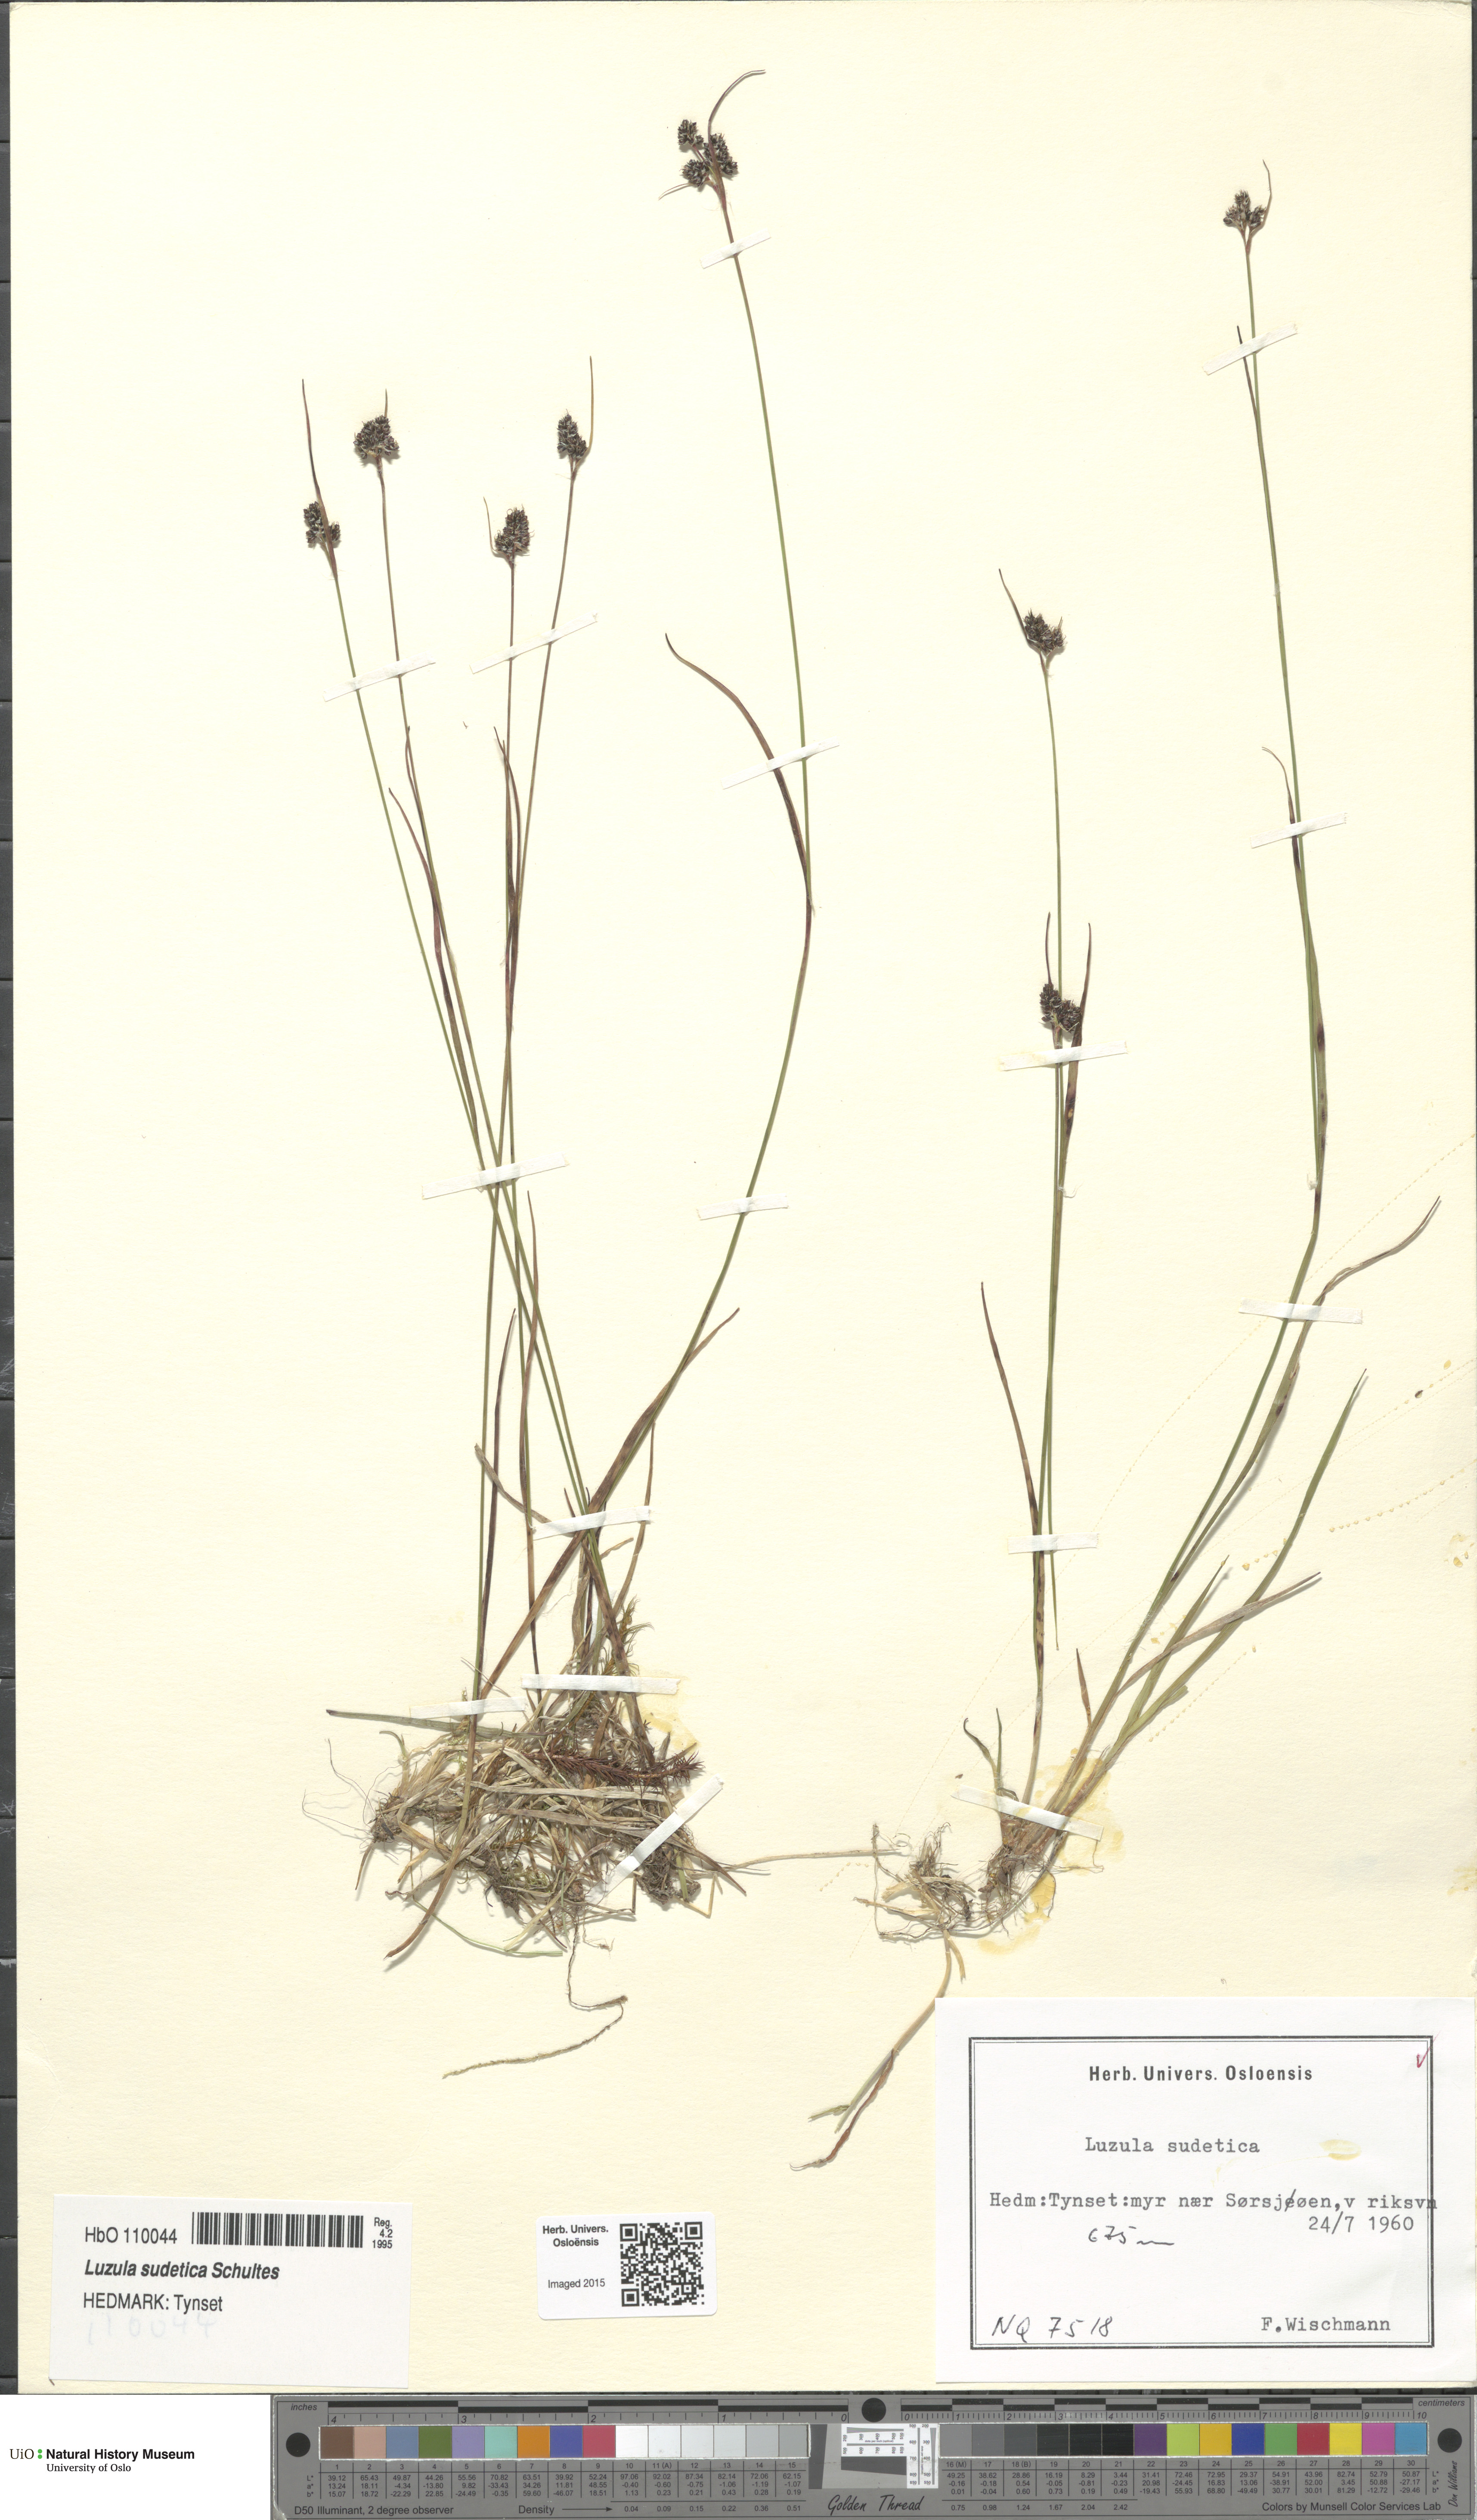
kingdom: Plantae
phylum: Tracheophyta
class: Liliopsida
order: Poales
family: Juncaceae
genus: Luzula
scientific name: Luzula sudetica
